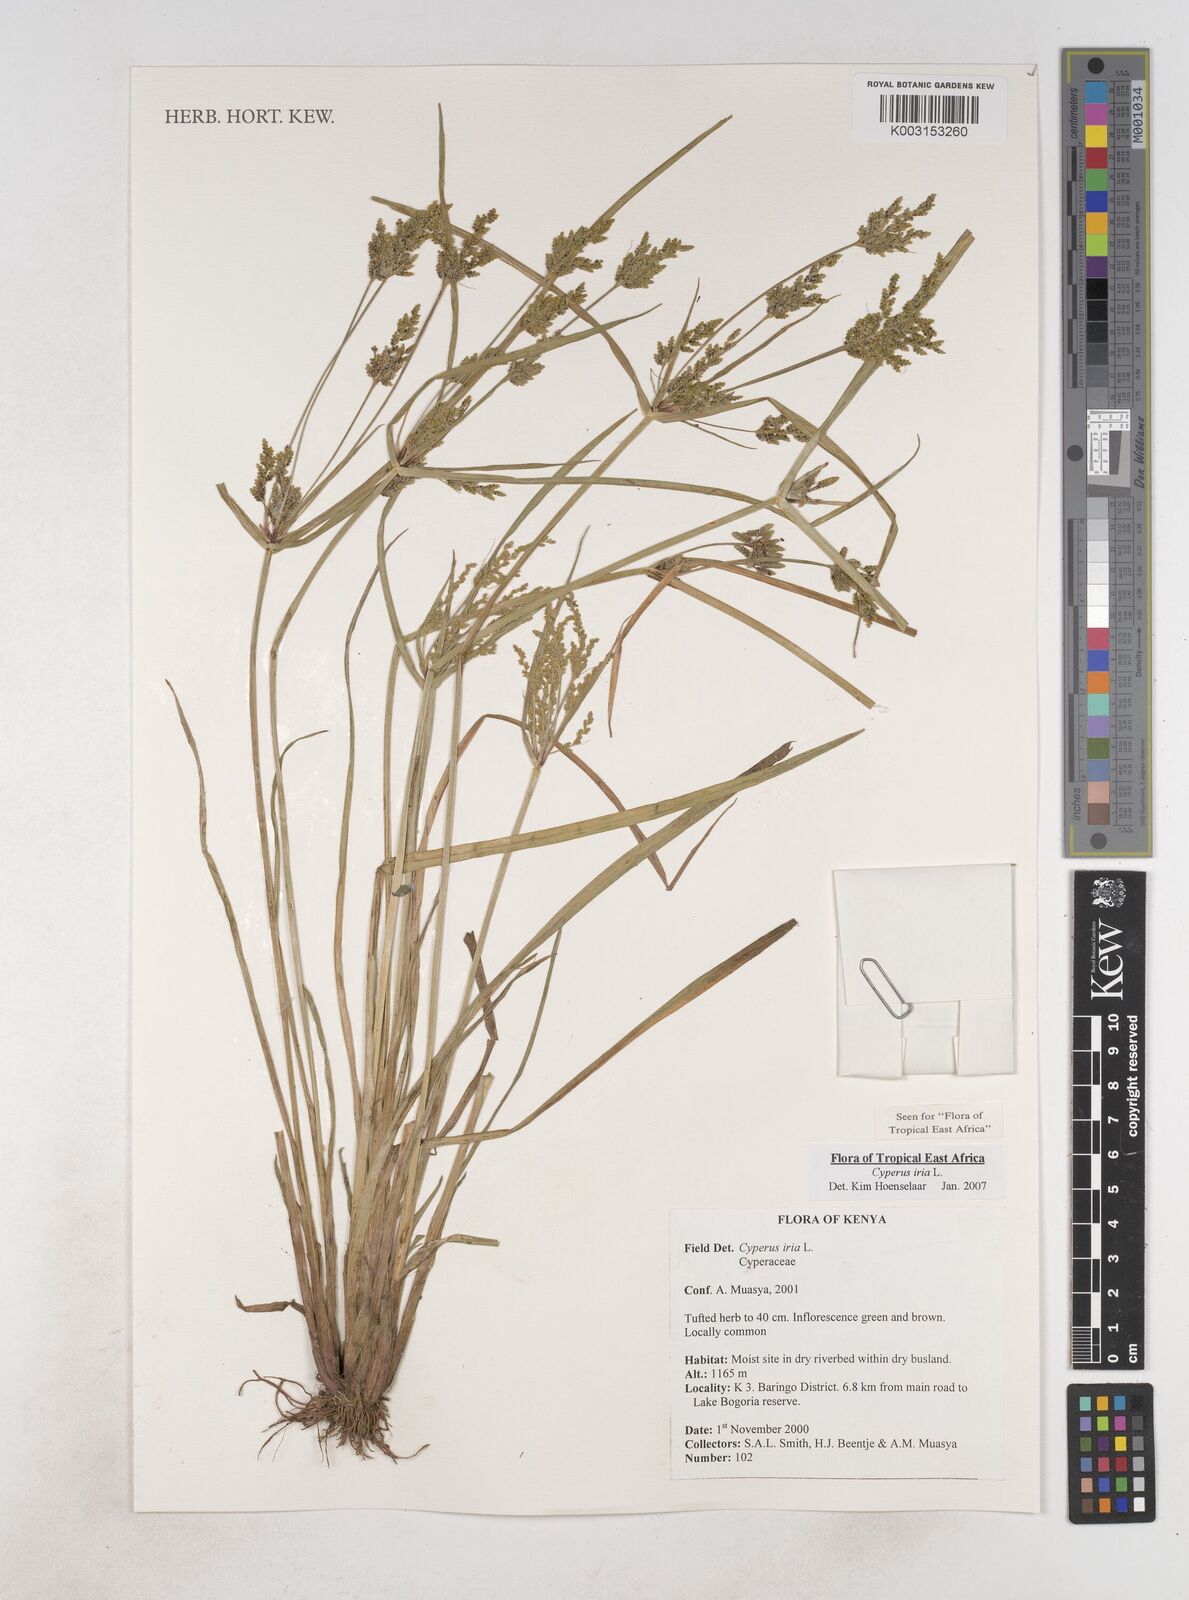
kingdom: Plantae
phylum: Tracheophyta
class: Liliopsida
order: Poales
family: Cyperaceae
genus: Cyperus
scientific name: Cyperus iria
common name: Ricefield flatsedge
